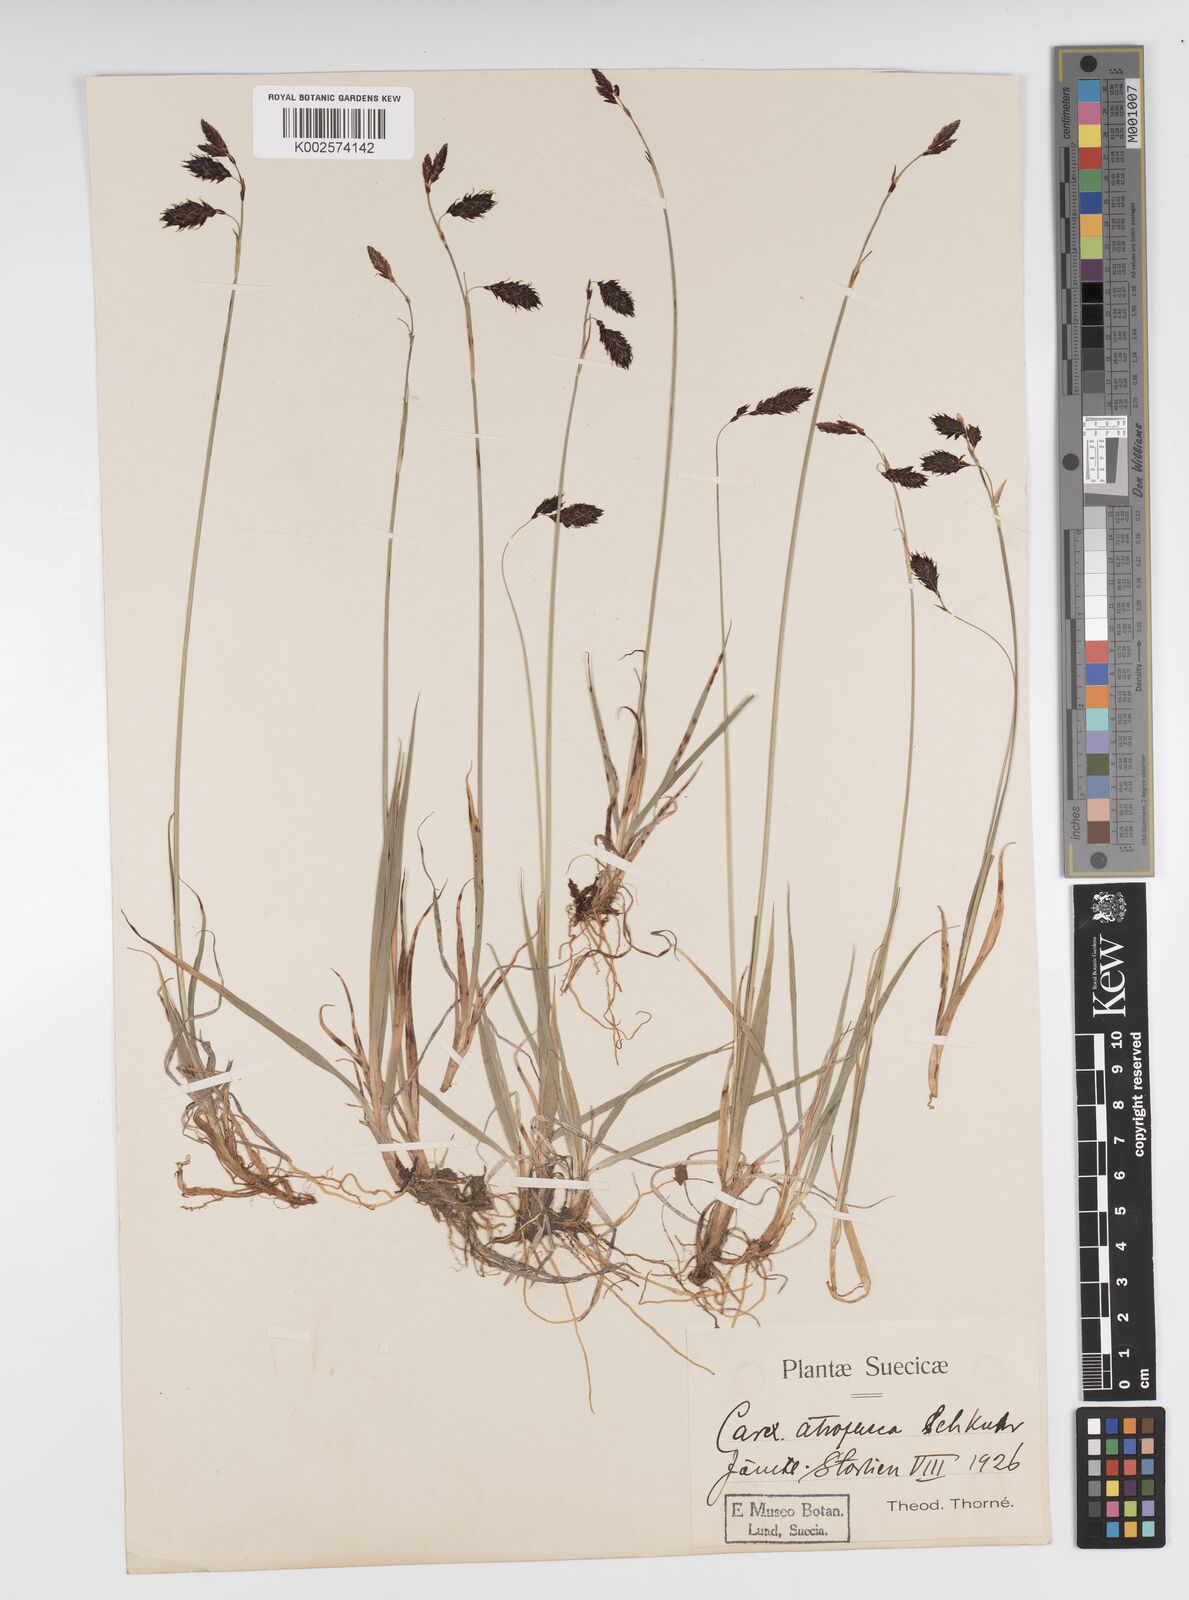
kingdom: Plantae
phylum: Tracheophyta
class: Liliopsida
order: Poales
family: Cyperaceae
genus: Carex
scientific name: Carex atrofusca
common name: Scorched alpine-sedge
